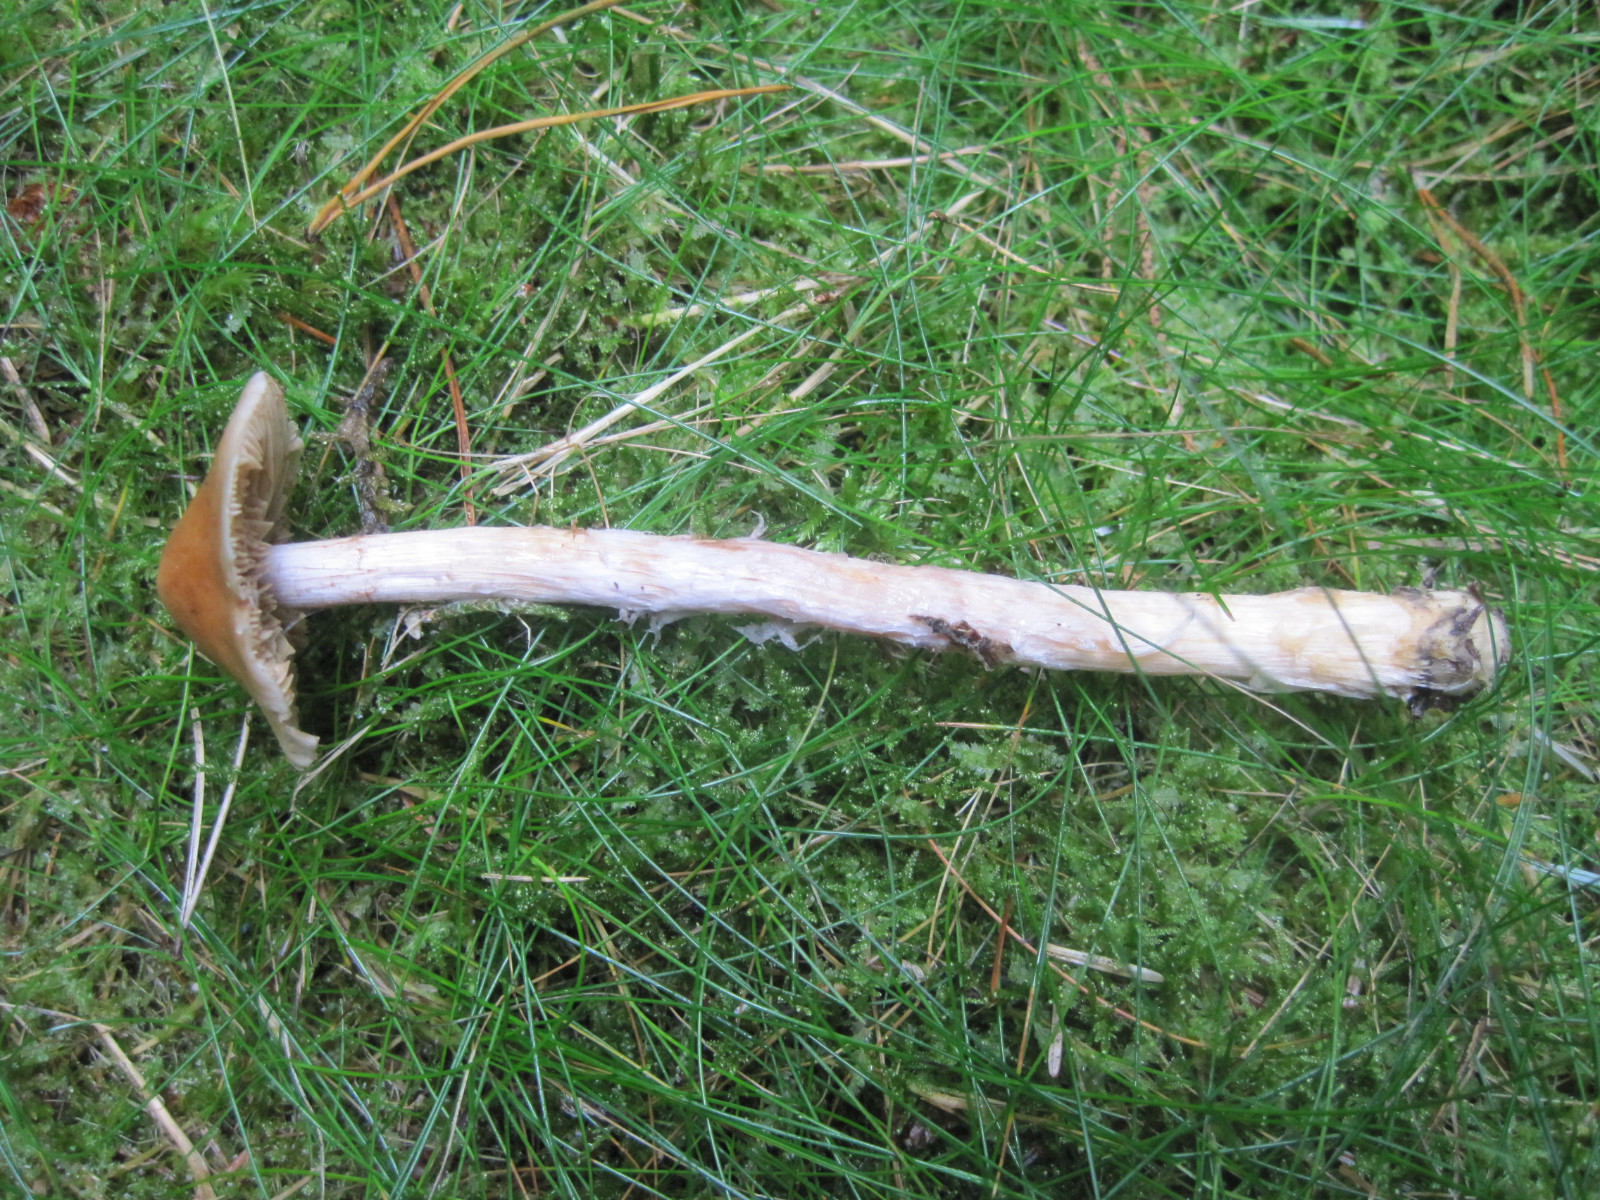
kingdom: Fungi
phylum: Basidiomycota
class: Agaricomycetes
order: Agaricales
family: Cortinariaceae
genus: Cortinarius
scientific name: Cortinarius collinitus
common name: spættet slørhat
